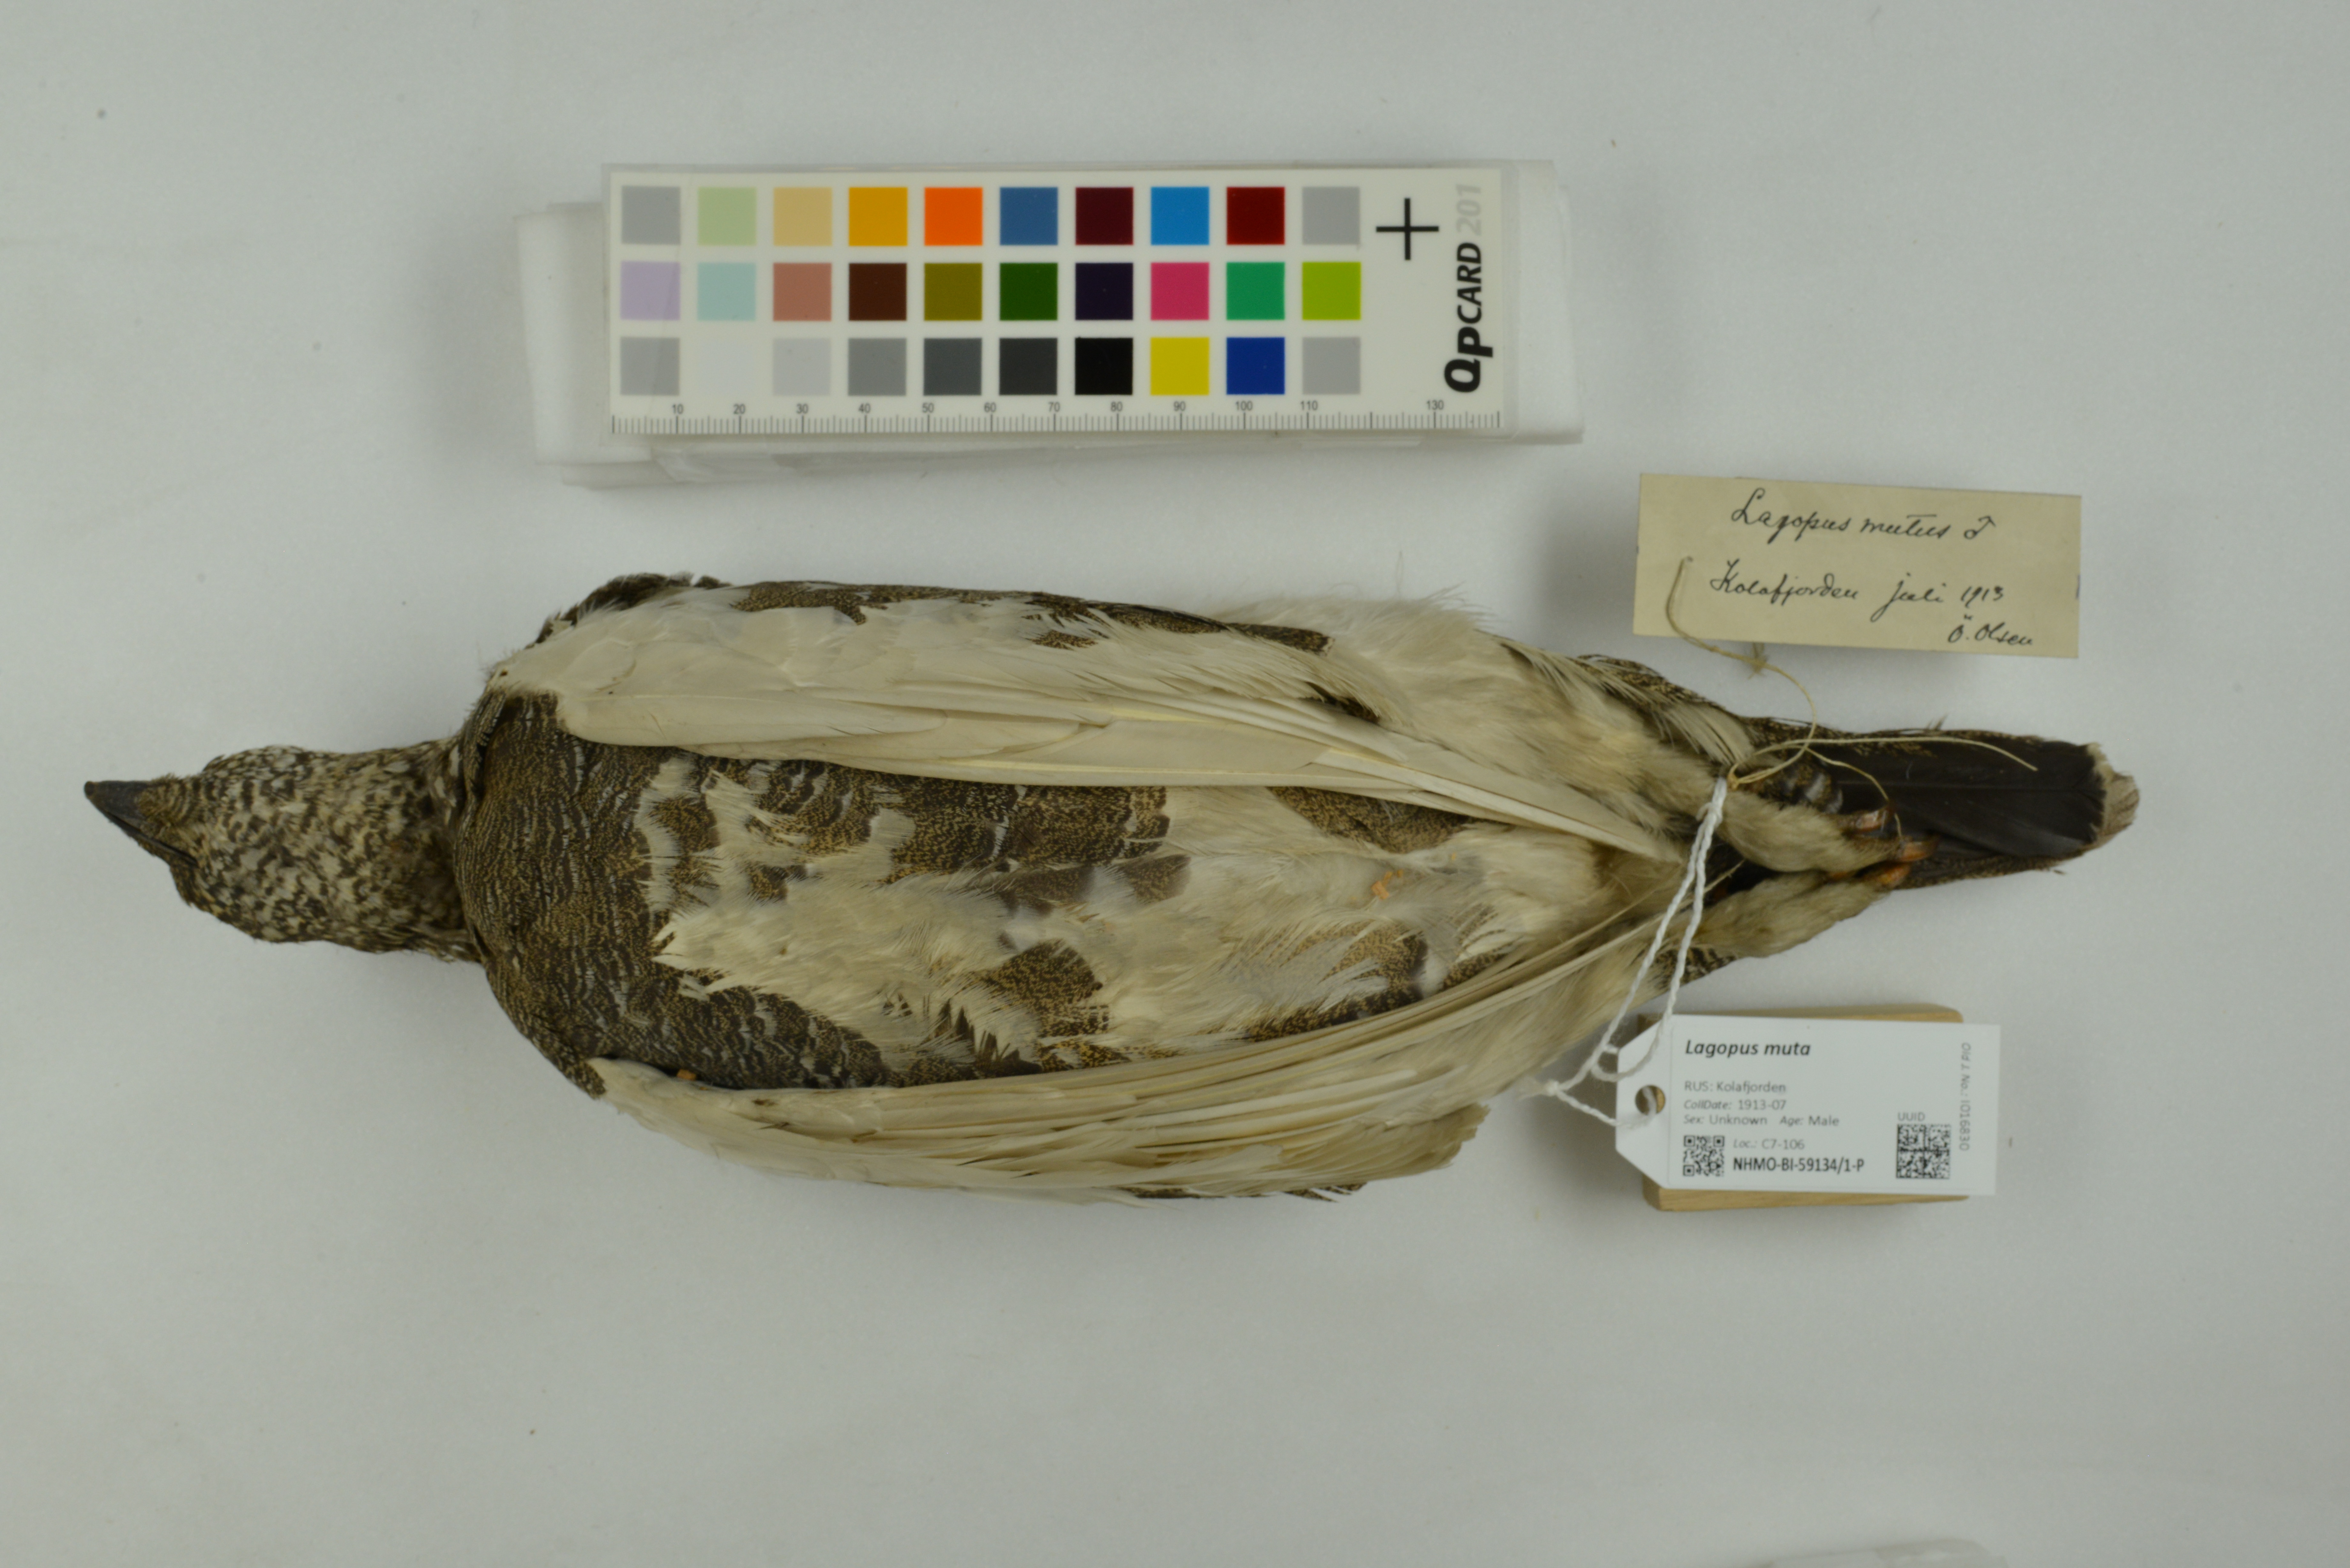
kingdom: Animalia
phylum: Chordata
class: Aves
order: Galliformes
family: Phasianidae
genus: Lagopus
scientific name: Lagopus muta
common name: Rock ptarmigan
